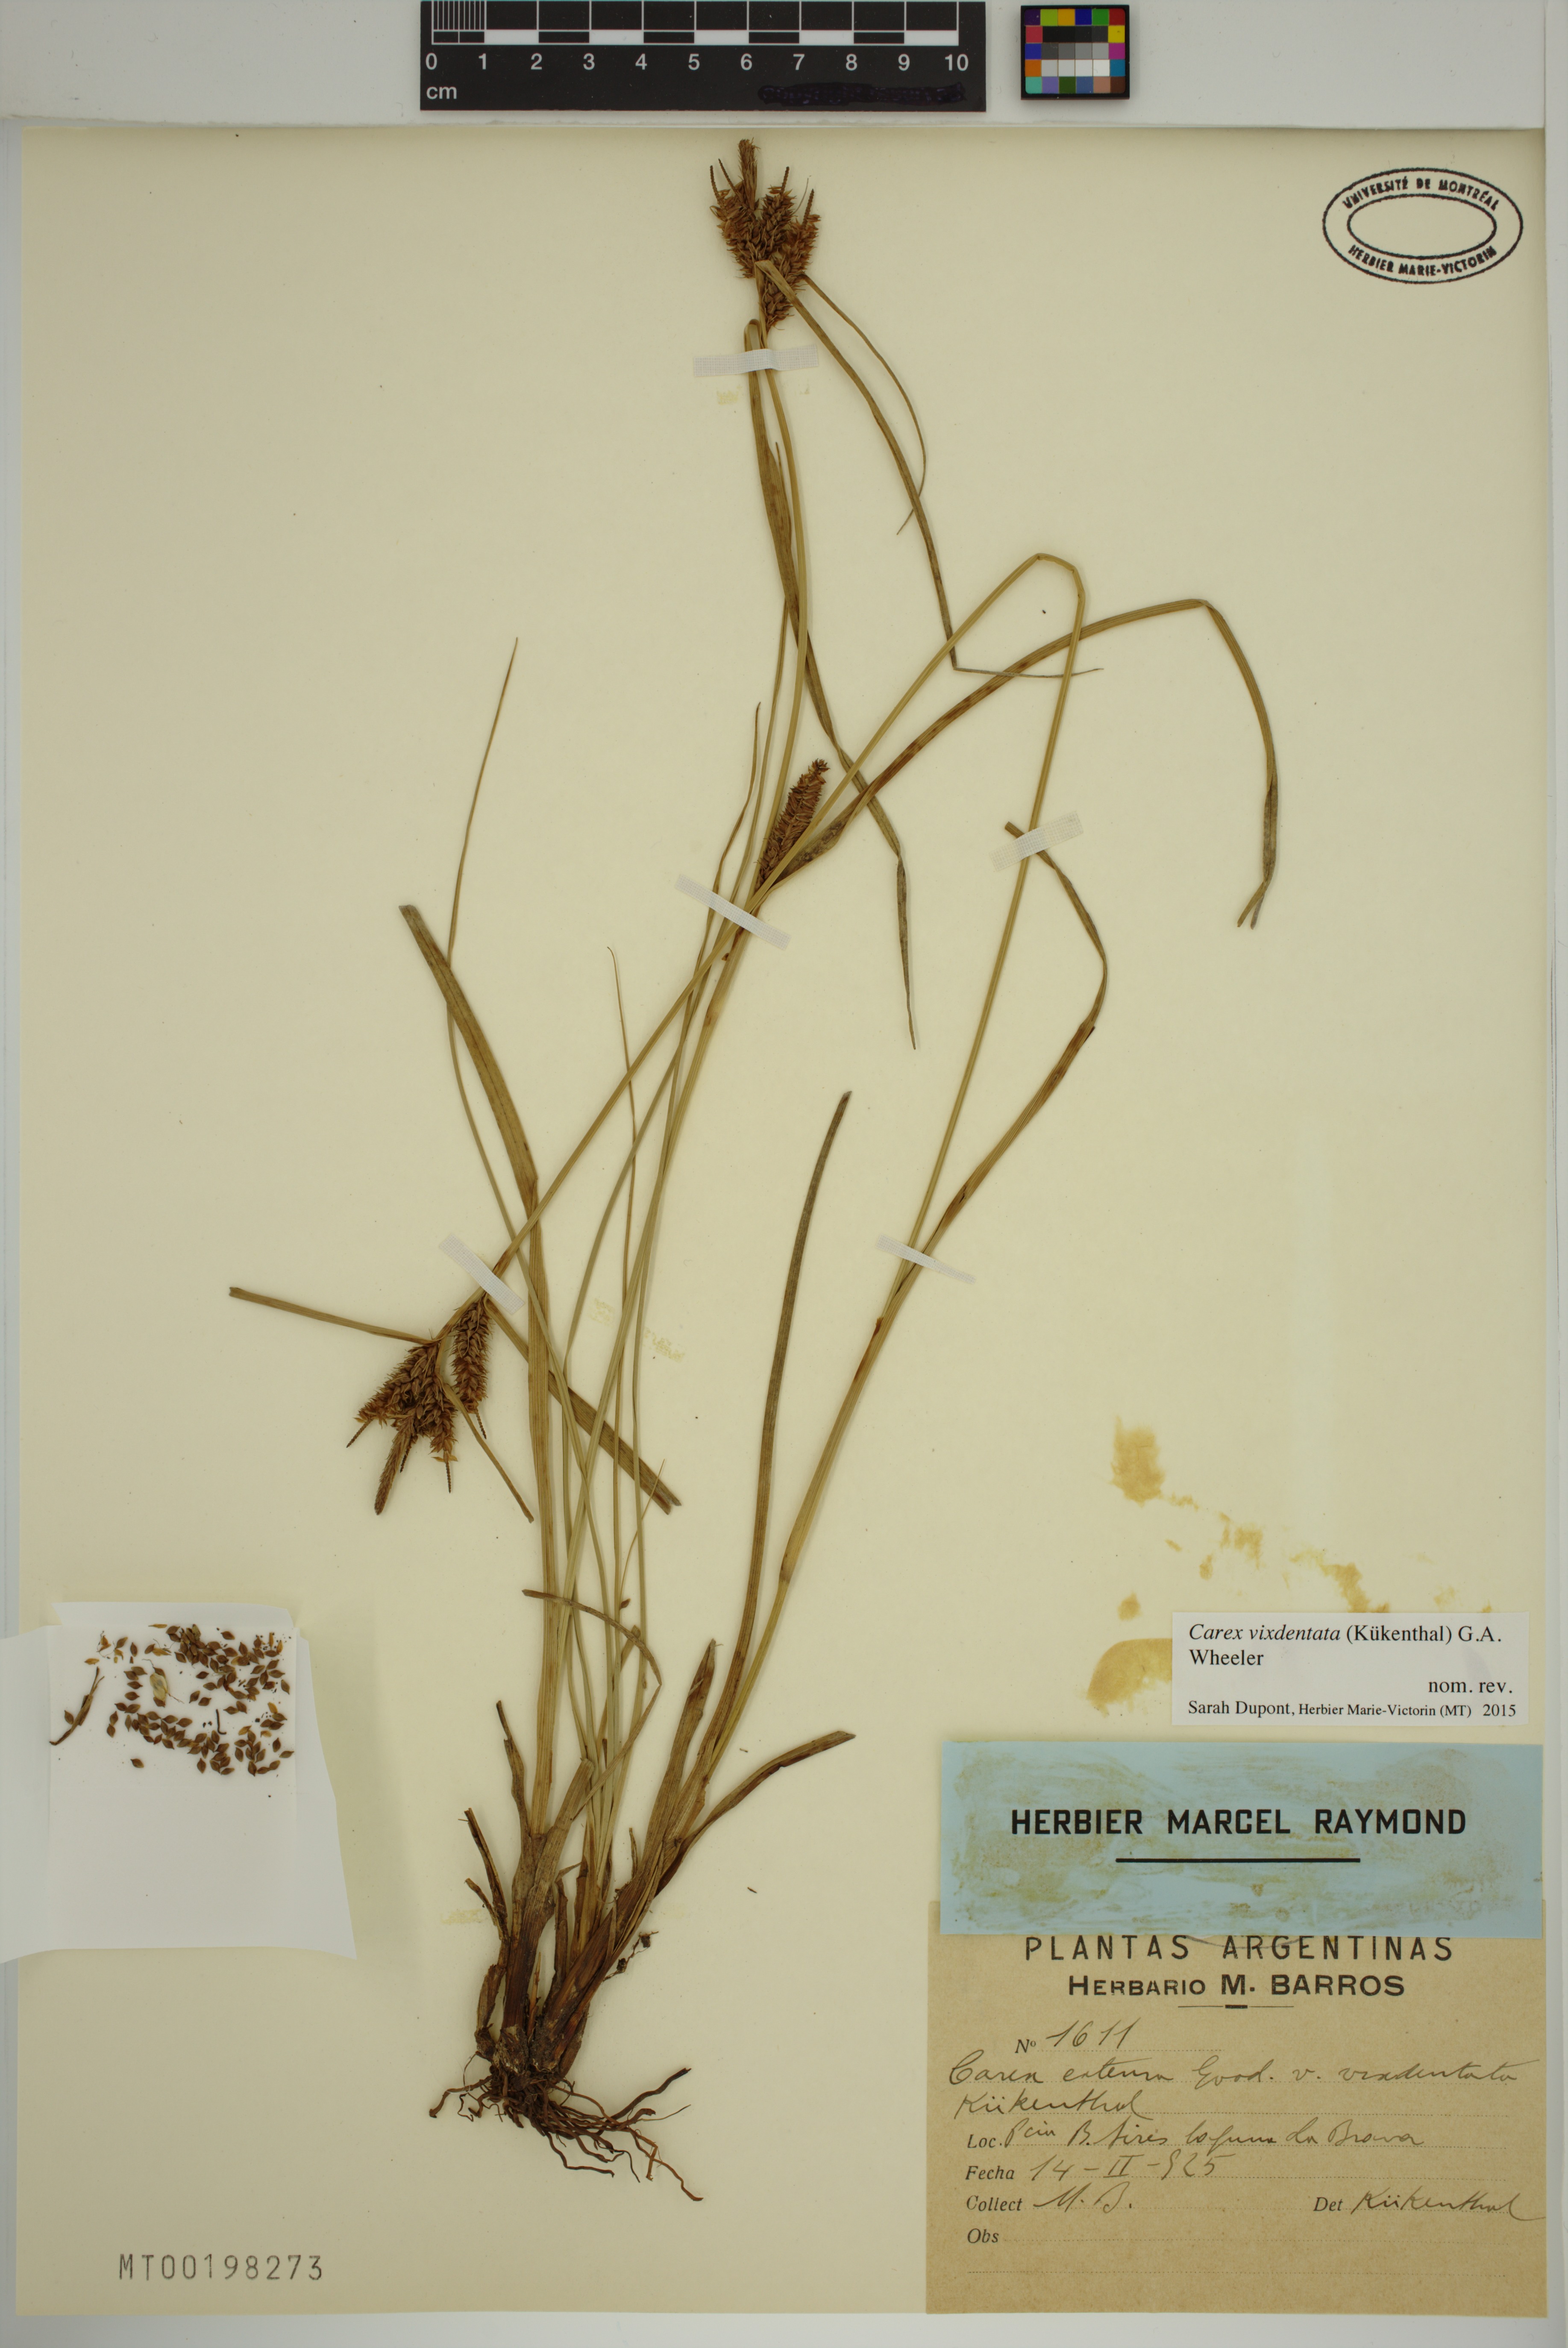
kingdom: Plantae
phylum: Tracheophyta
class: Liliopsida
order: Poales
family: Cyperaceae
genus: Carex
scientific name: Carex vixdentata
